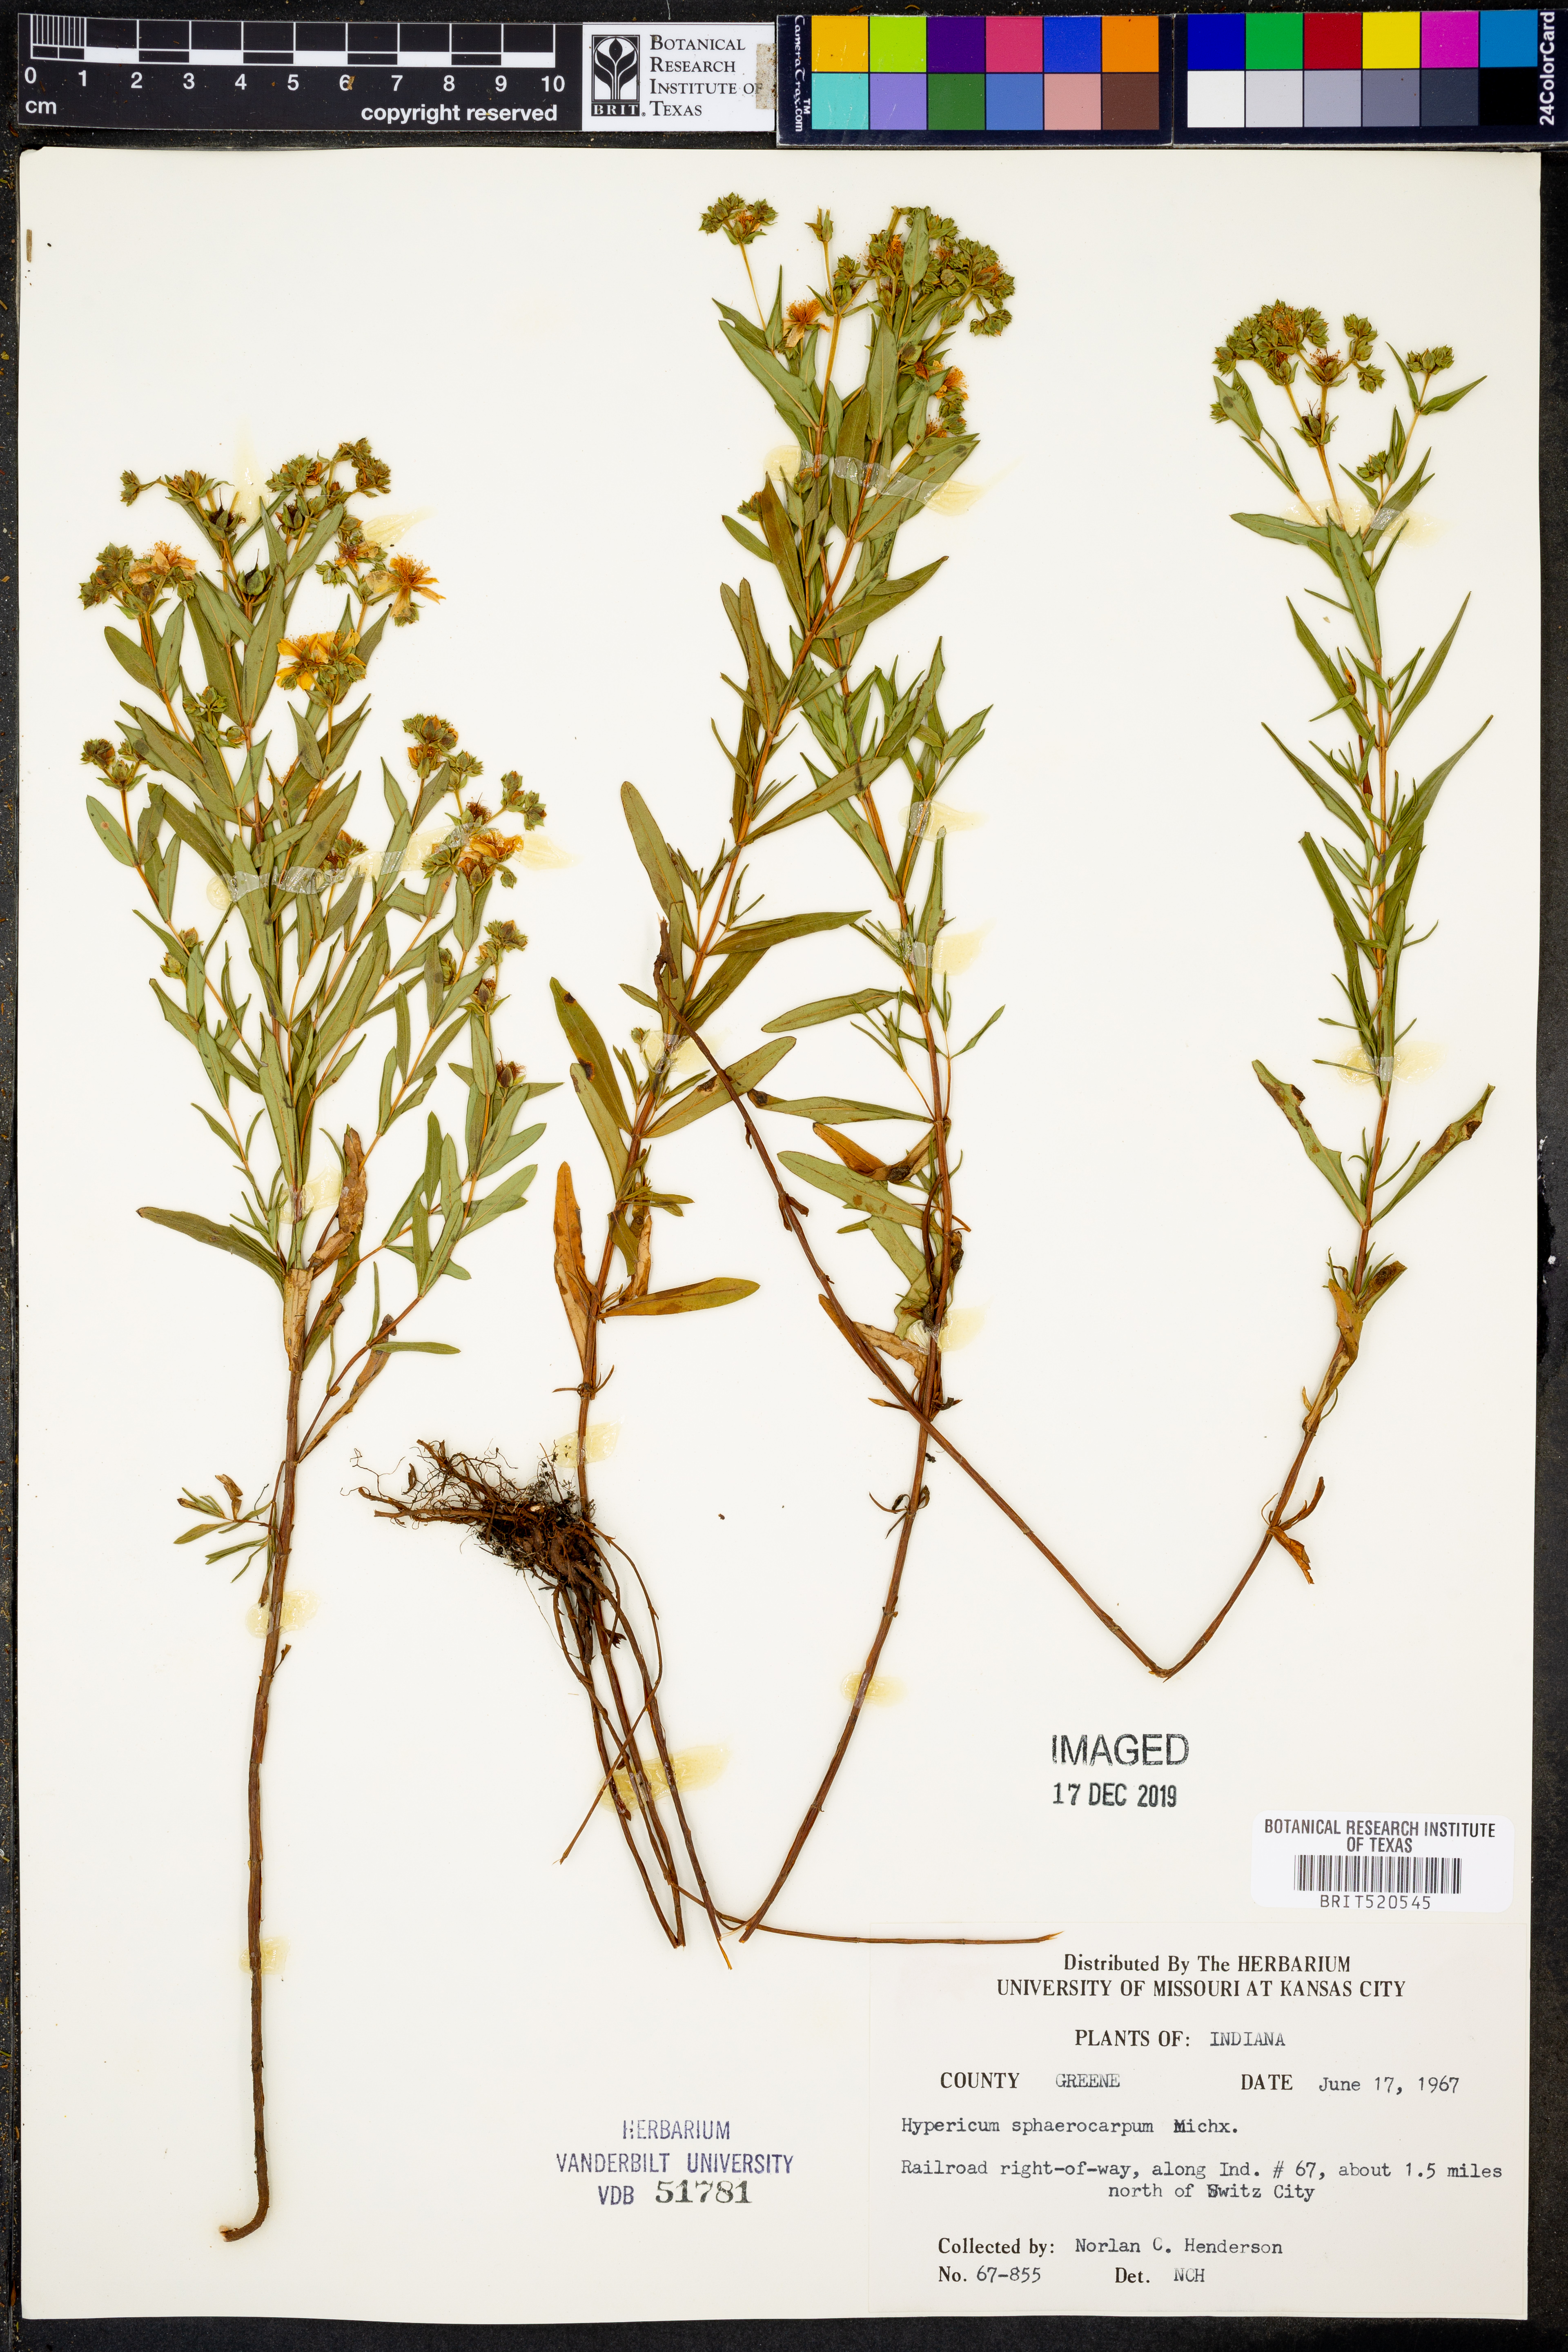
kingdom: Plantae
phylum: Tracheophyta
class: Magnoliopsida
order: Malpighiales
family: Hypericaceae
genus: Hypericum
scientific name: Hypericum sphaerocarpum
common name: Round-fruited st. john's-wort
